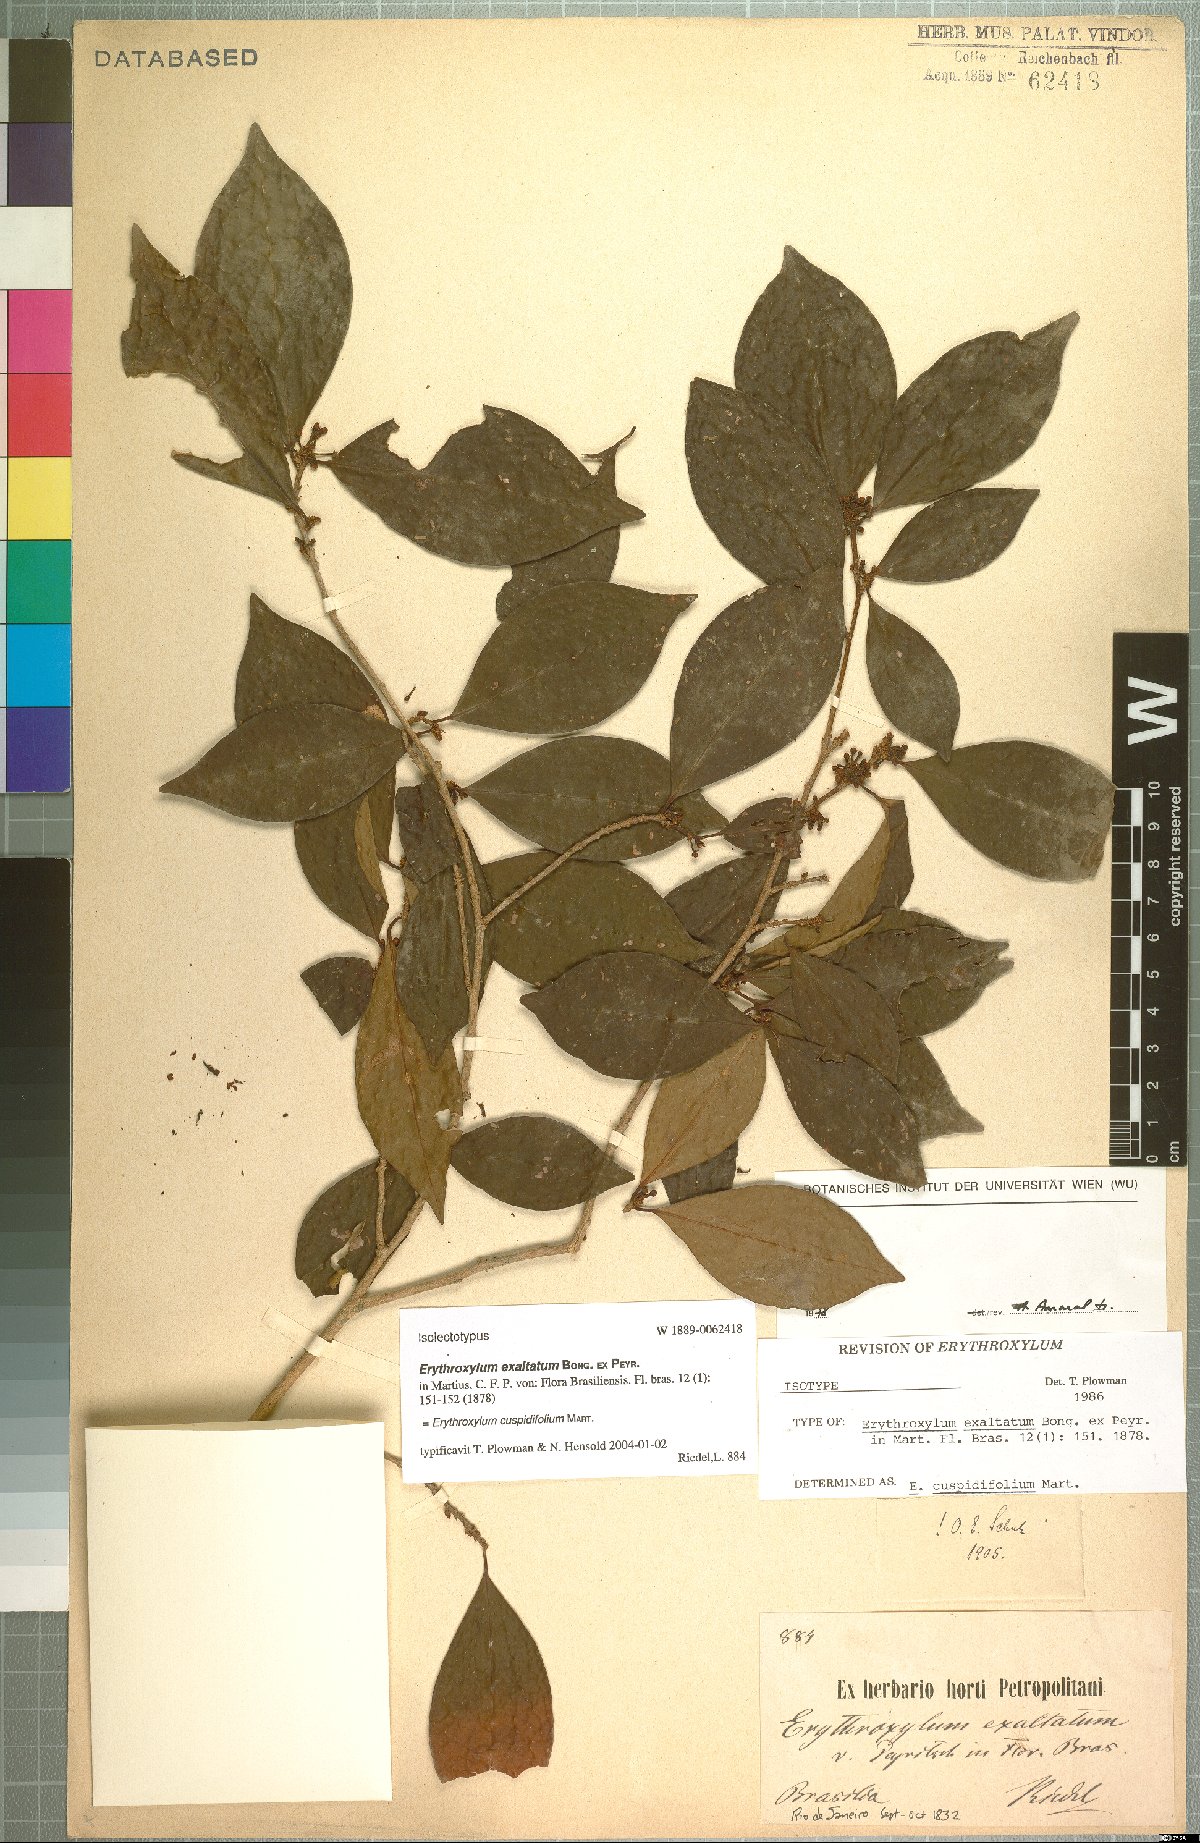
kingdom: Plantae
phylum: Tracheophyta
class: Magnoliopsida
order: Malpighiales
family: Erythroxylaceae
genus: Erythroxylum
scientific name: Erythroxylum cuspidifolium
